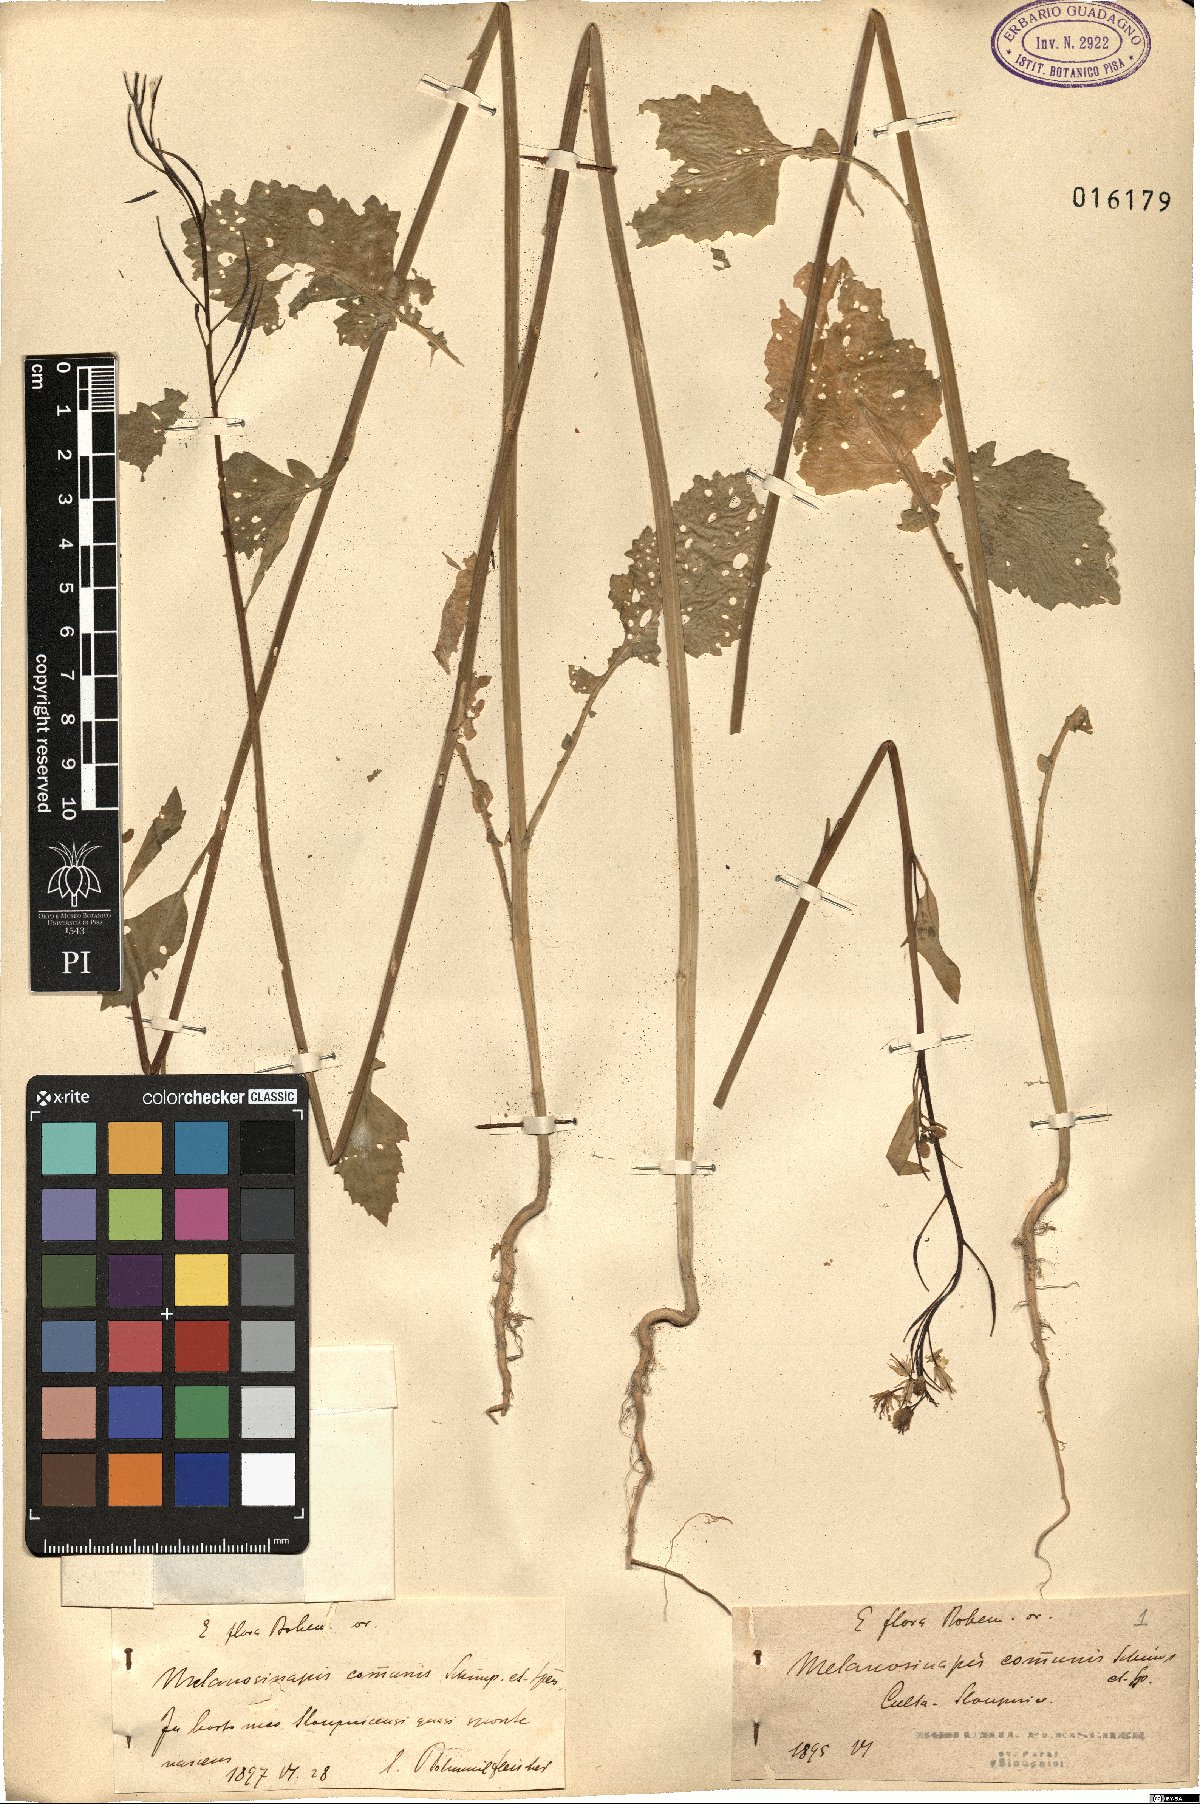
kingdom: Plantae
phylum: Tracheophyta
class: Magnoliopsida
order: Brassicales
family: Brassicaceae
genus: Brassica
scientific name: Brassica nigra
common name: Black mustard
